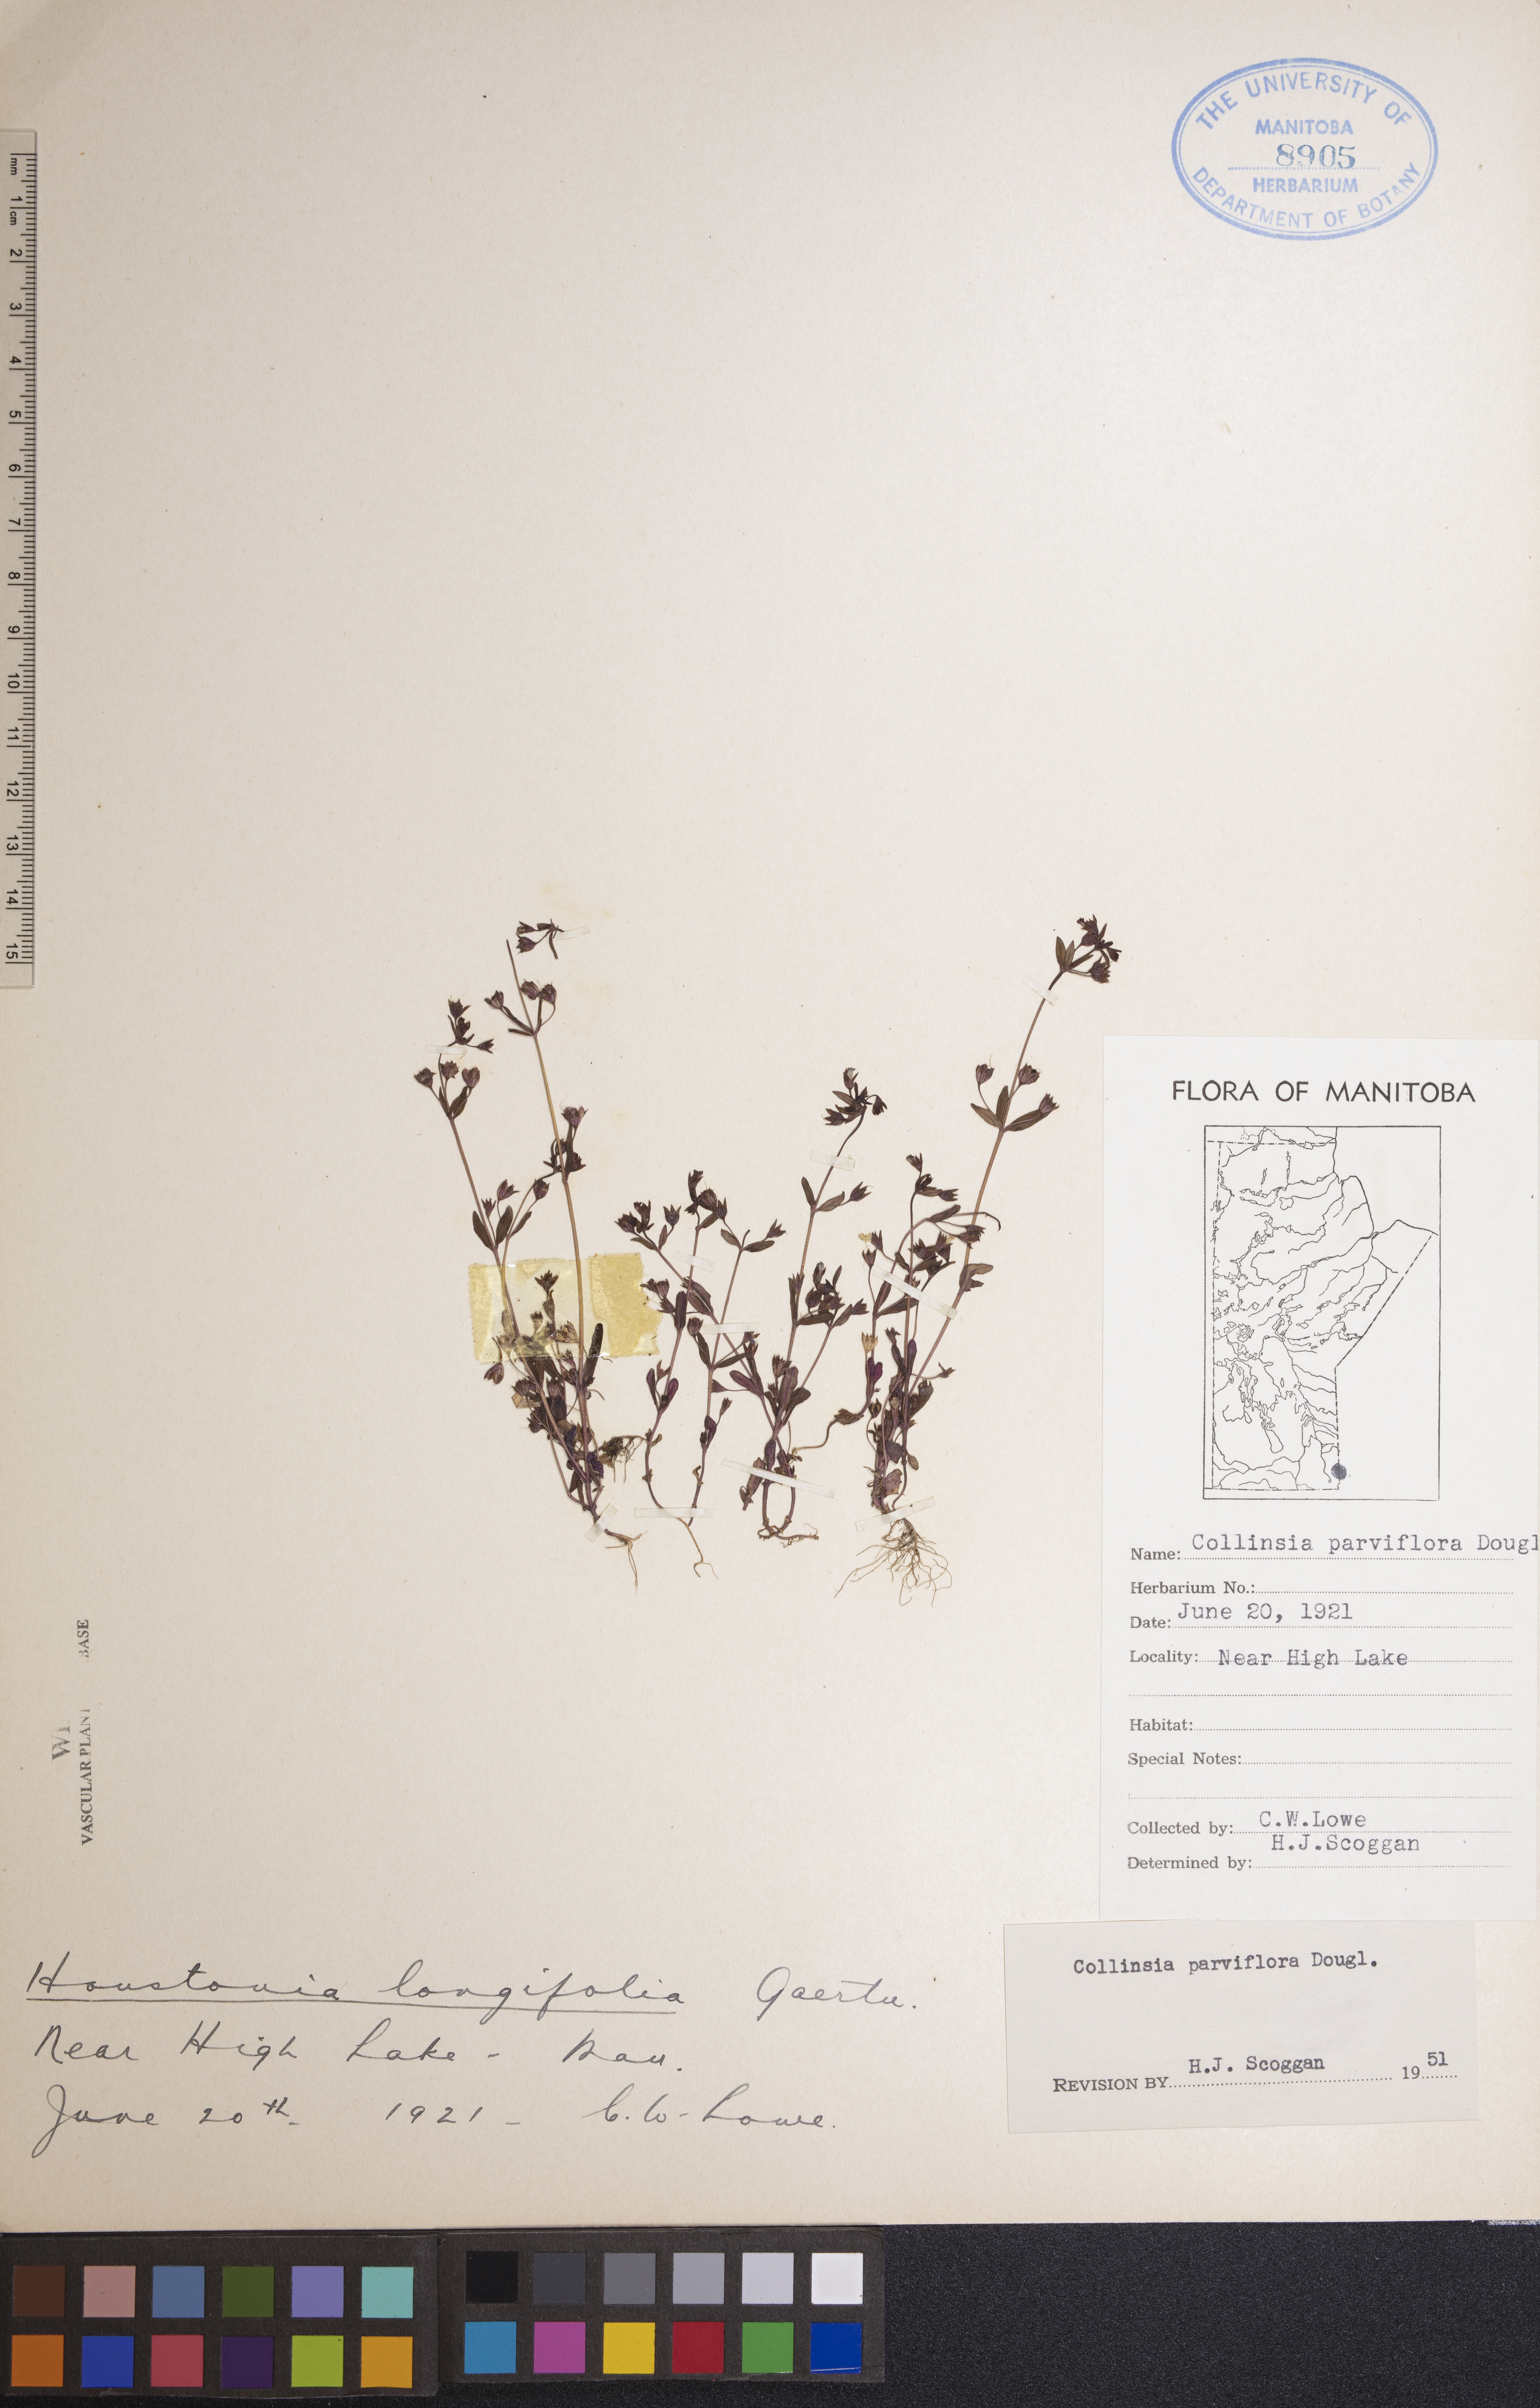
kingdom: Plantae
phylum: Tracheophyta
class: Magnoliopsida
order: Lamiales
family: Plantaginaceae
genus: Collinsia
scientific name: Collinsia parviflora
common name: Blue-lips
